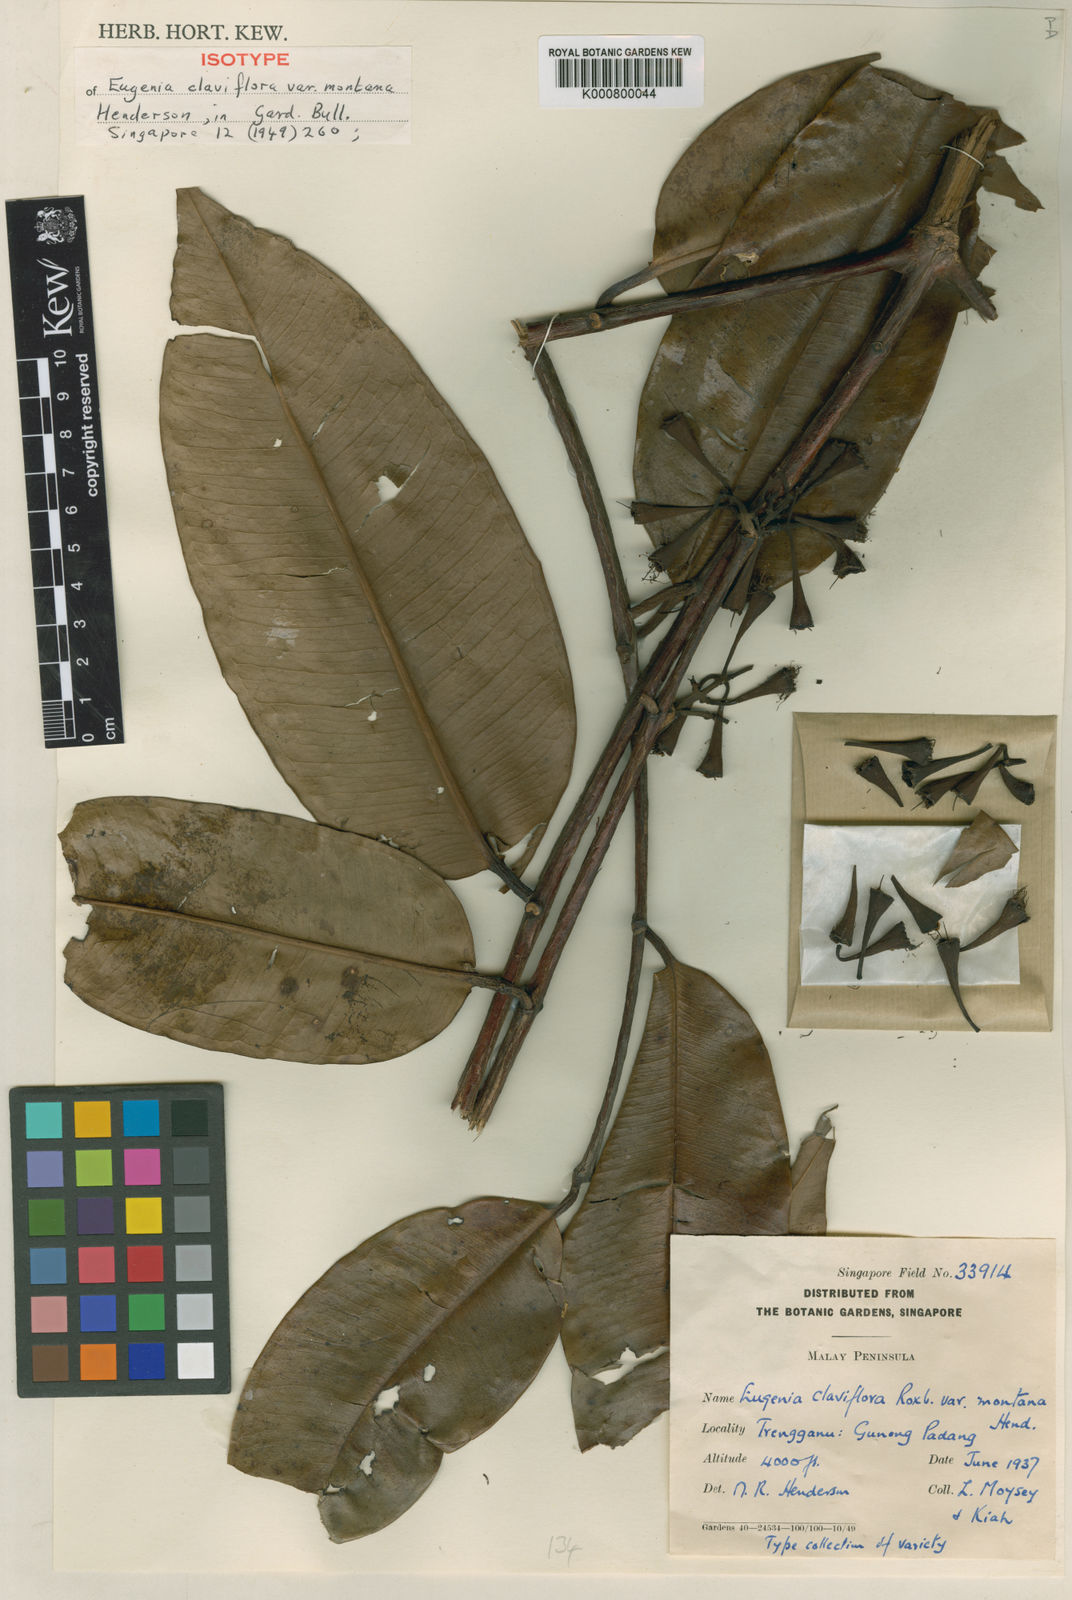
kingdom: Plantae
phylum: Tracheophyta
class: Magnoliopsida
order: Myrtales
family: Myrtaceae
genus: Syzygium
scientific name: Syzygium claviflorum
